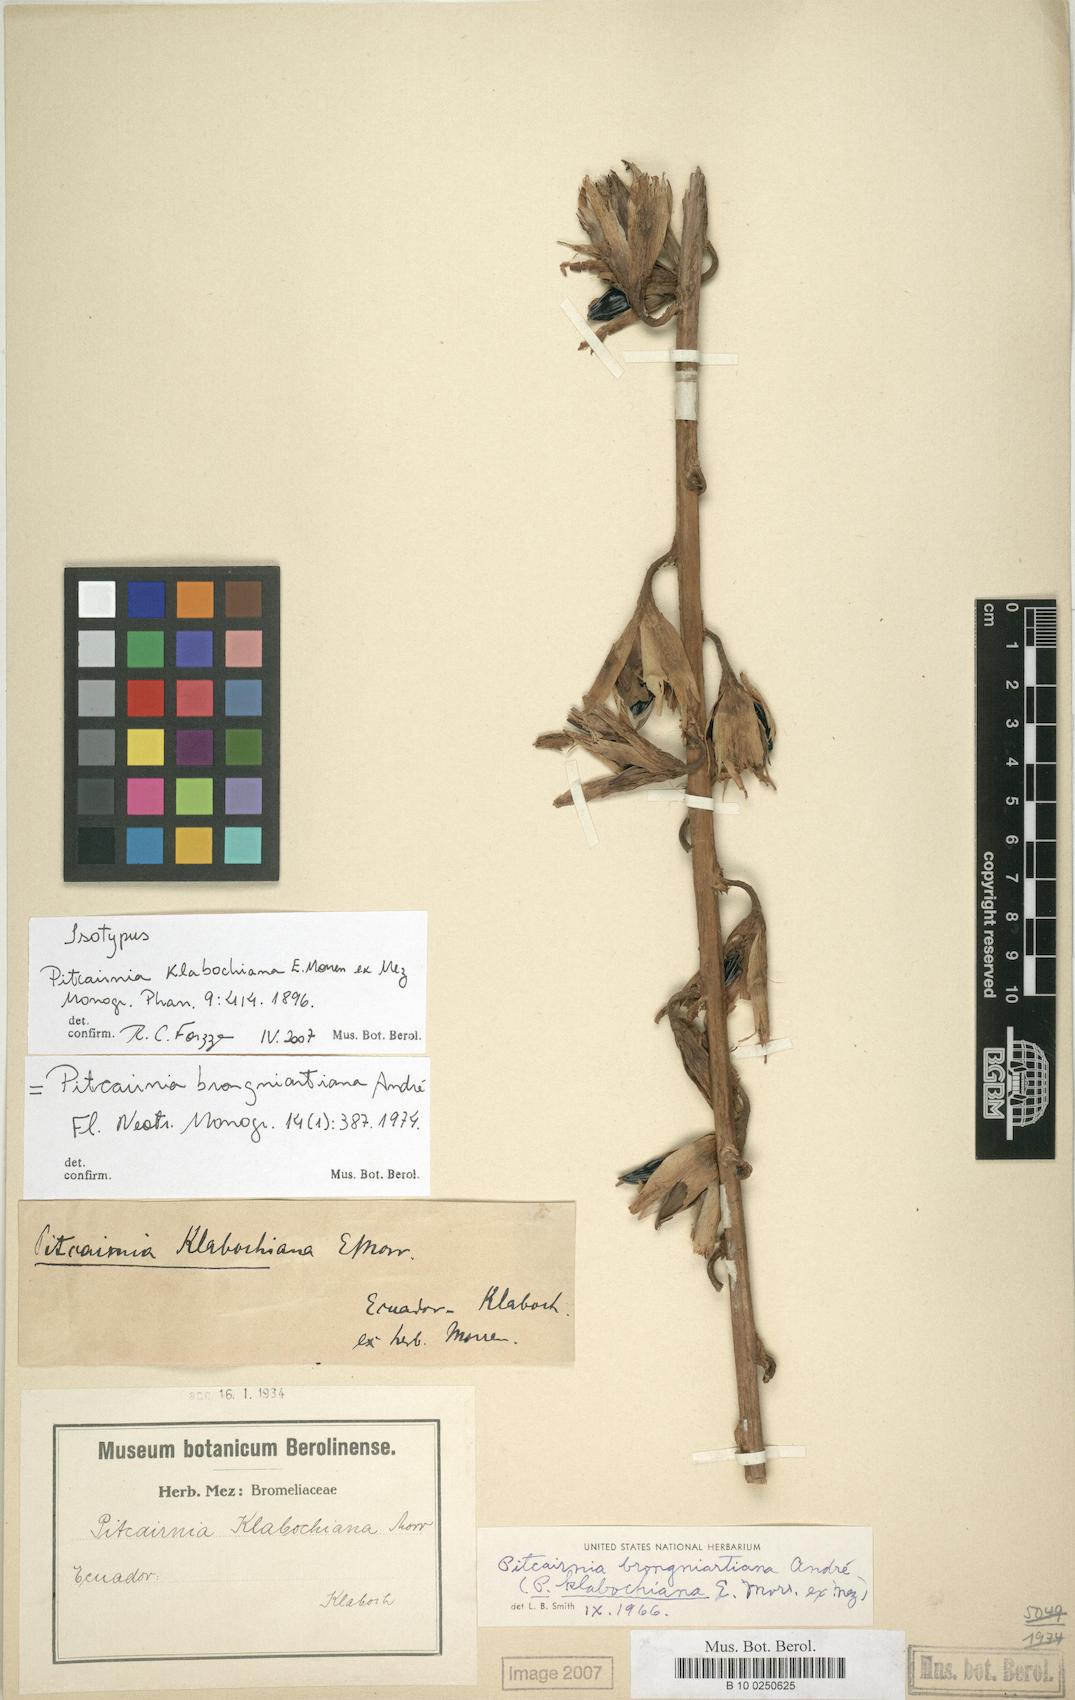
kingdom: Plantae
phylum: Tracheophyta
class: Liliopsida
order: Poales
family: Bromeliaceae
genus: Pitcairnia
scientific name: Pitcairnia brongniartiana
